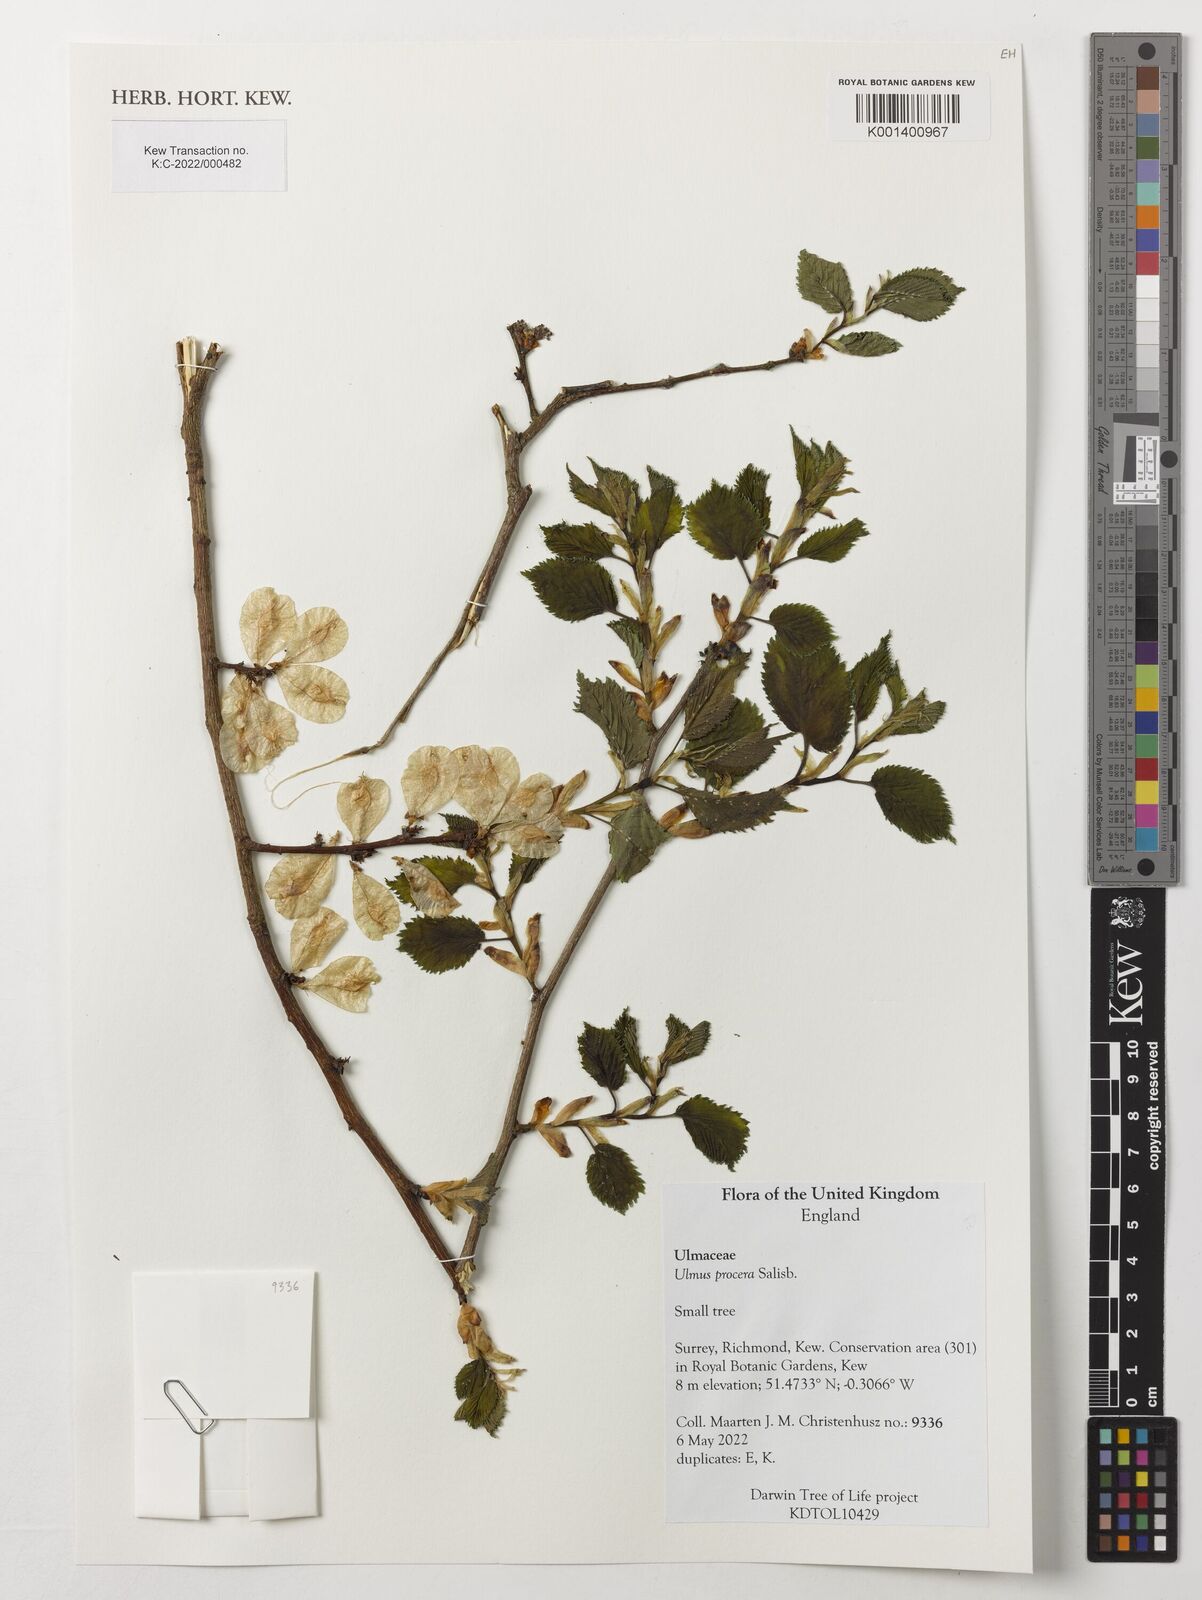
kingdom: Plantae
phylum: Tracheophyta
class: Magnoliopsida
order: Rosales
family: Ulmaceae
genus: Ulmus
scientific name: Ulmus minor
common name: Small-leaved elm
